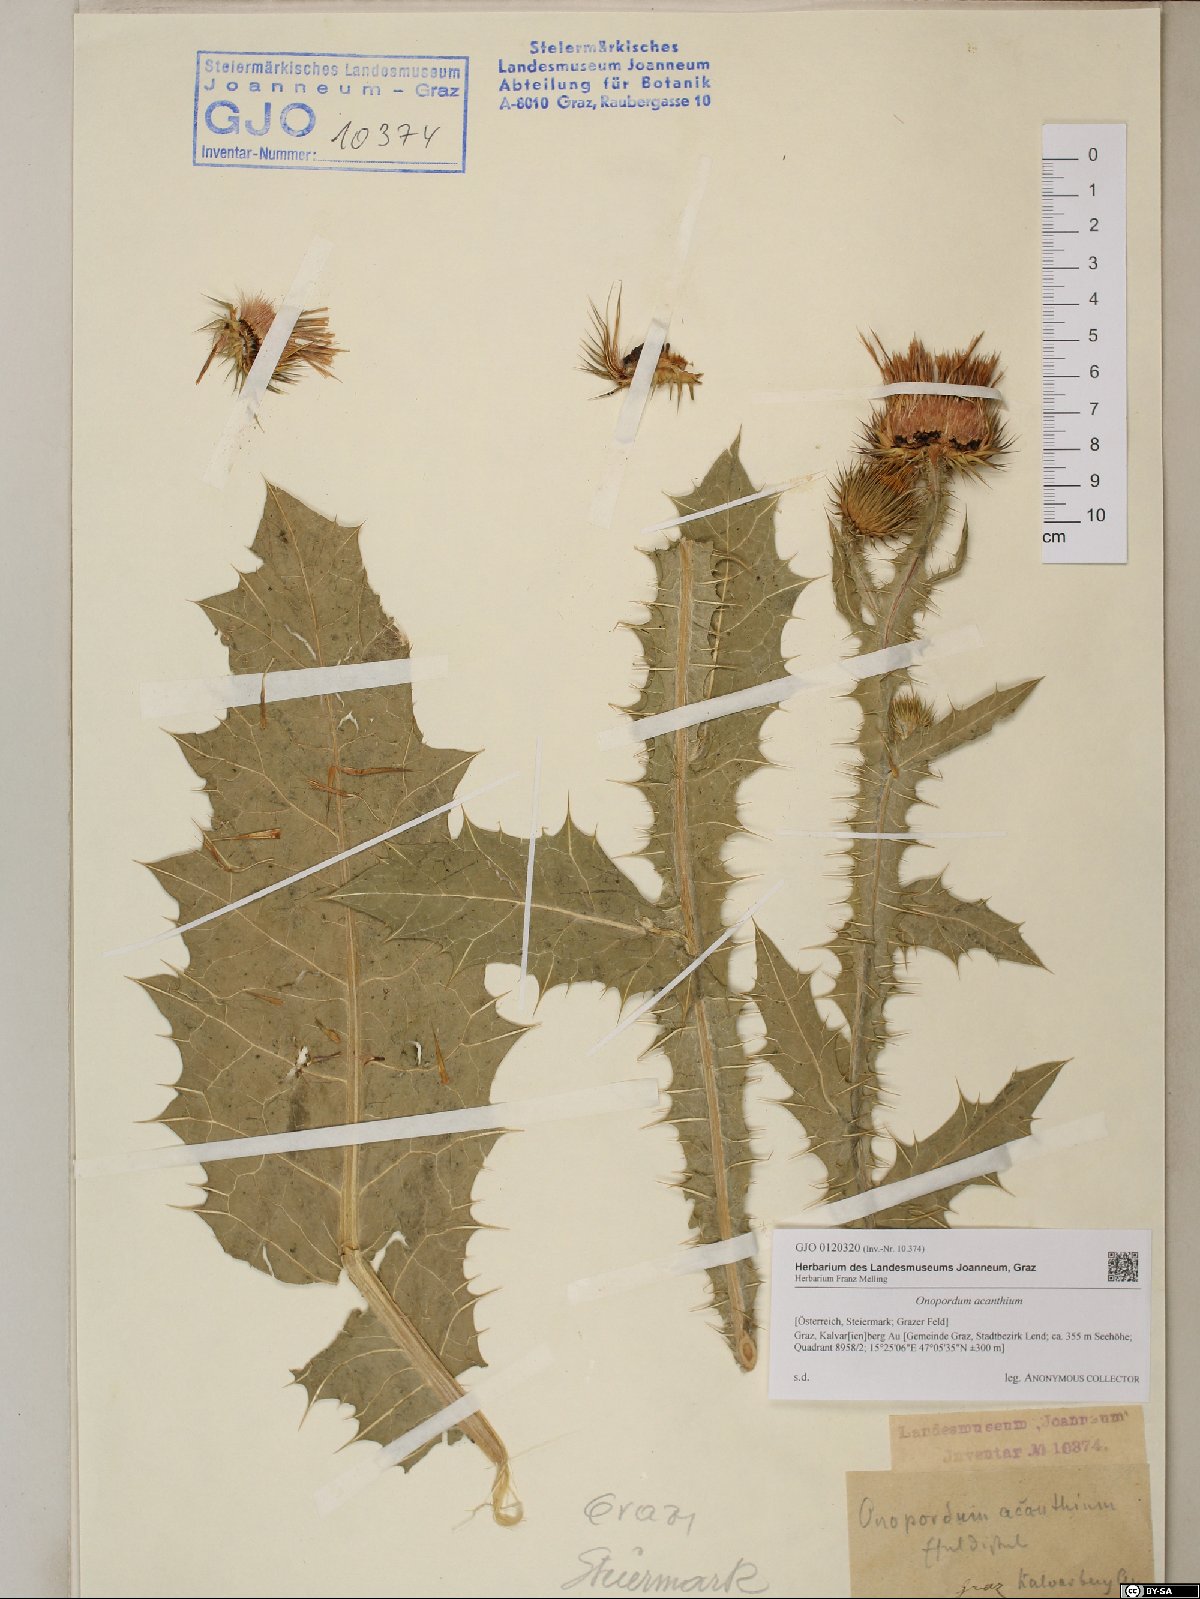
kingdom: Plantae
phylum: Tracheophyta
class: Magnoliopsida
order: Asterales
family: Asteraceae
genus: Onopordum
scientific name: Onopordum acanthium
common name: Scotch thistle
